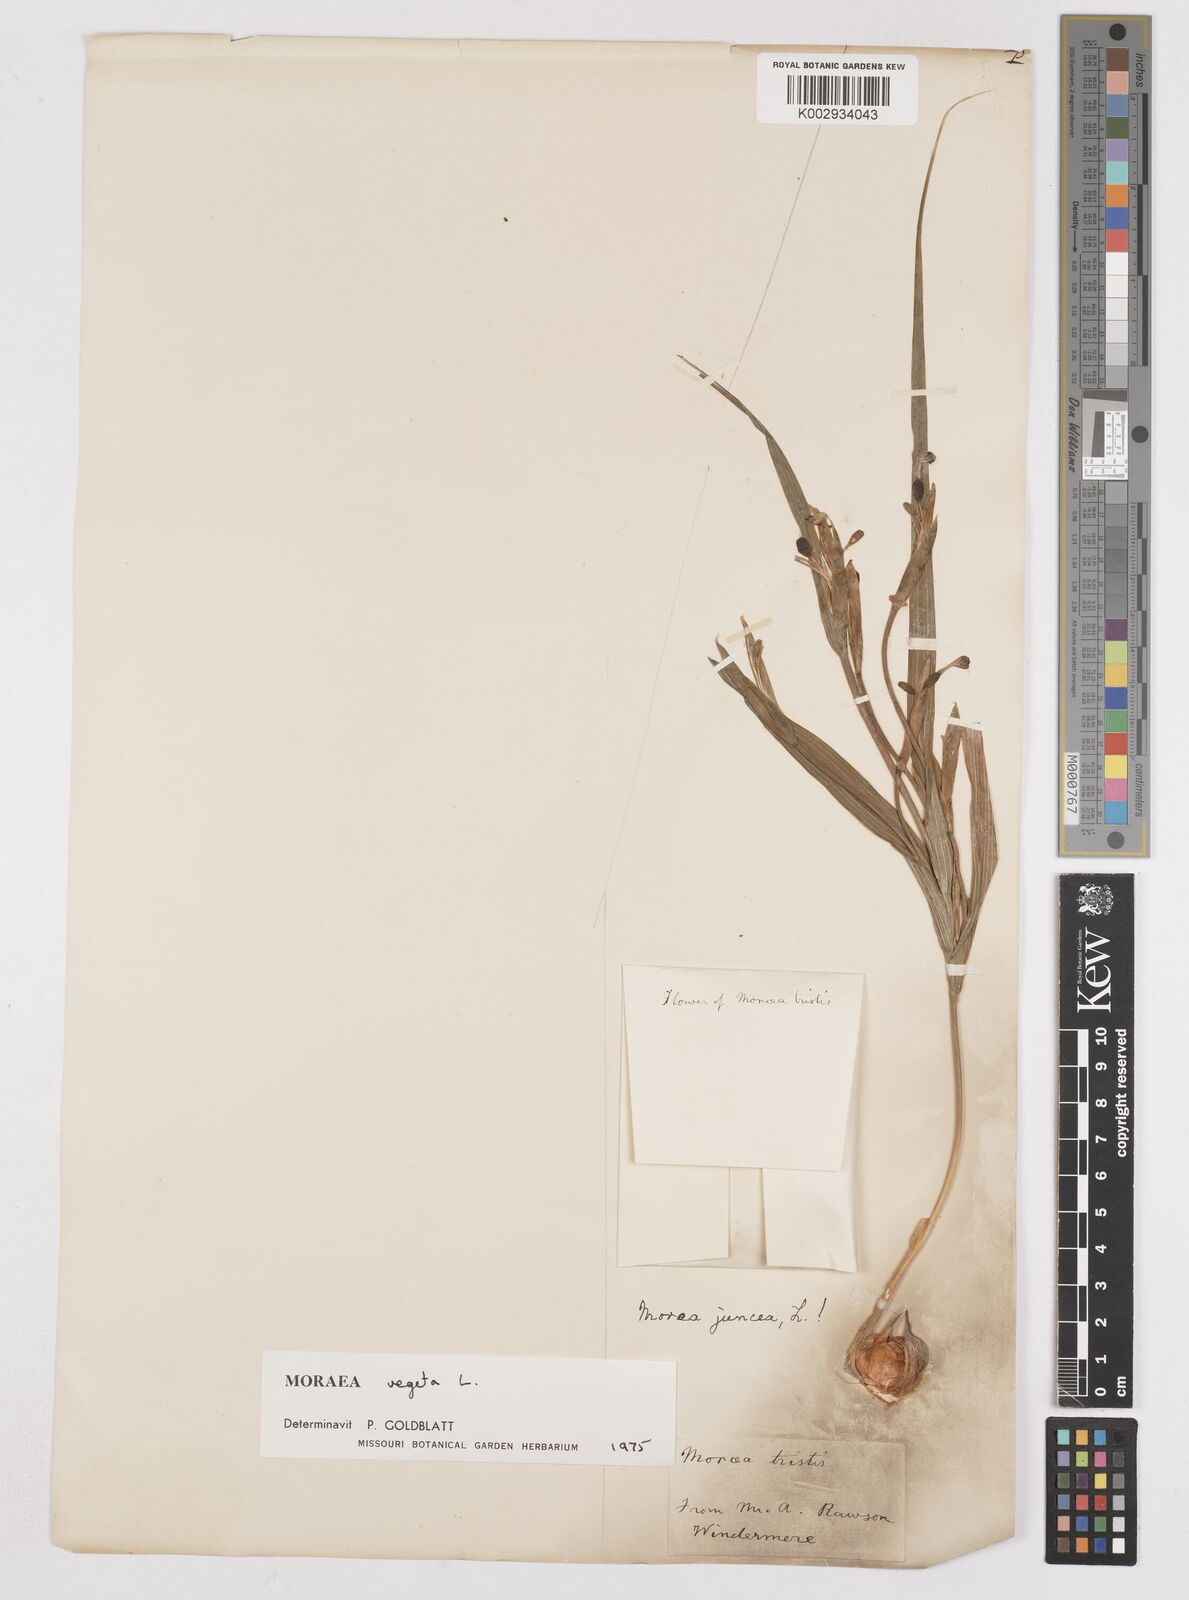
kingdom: Plantae
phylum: Tracheophyta
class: Liliopsida
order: Asparagales
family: Iridaceae
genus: Moraea
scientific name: Moraea vegeta
